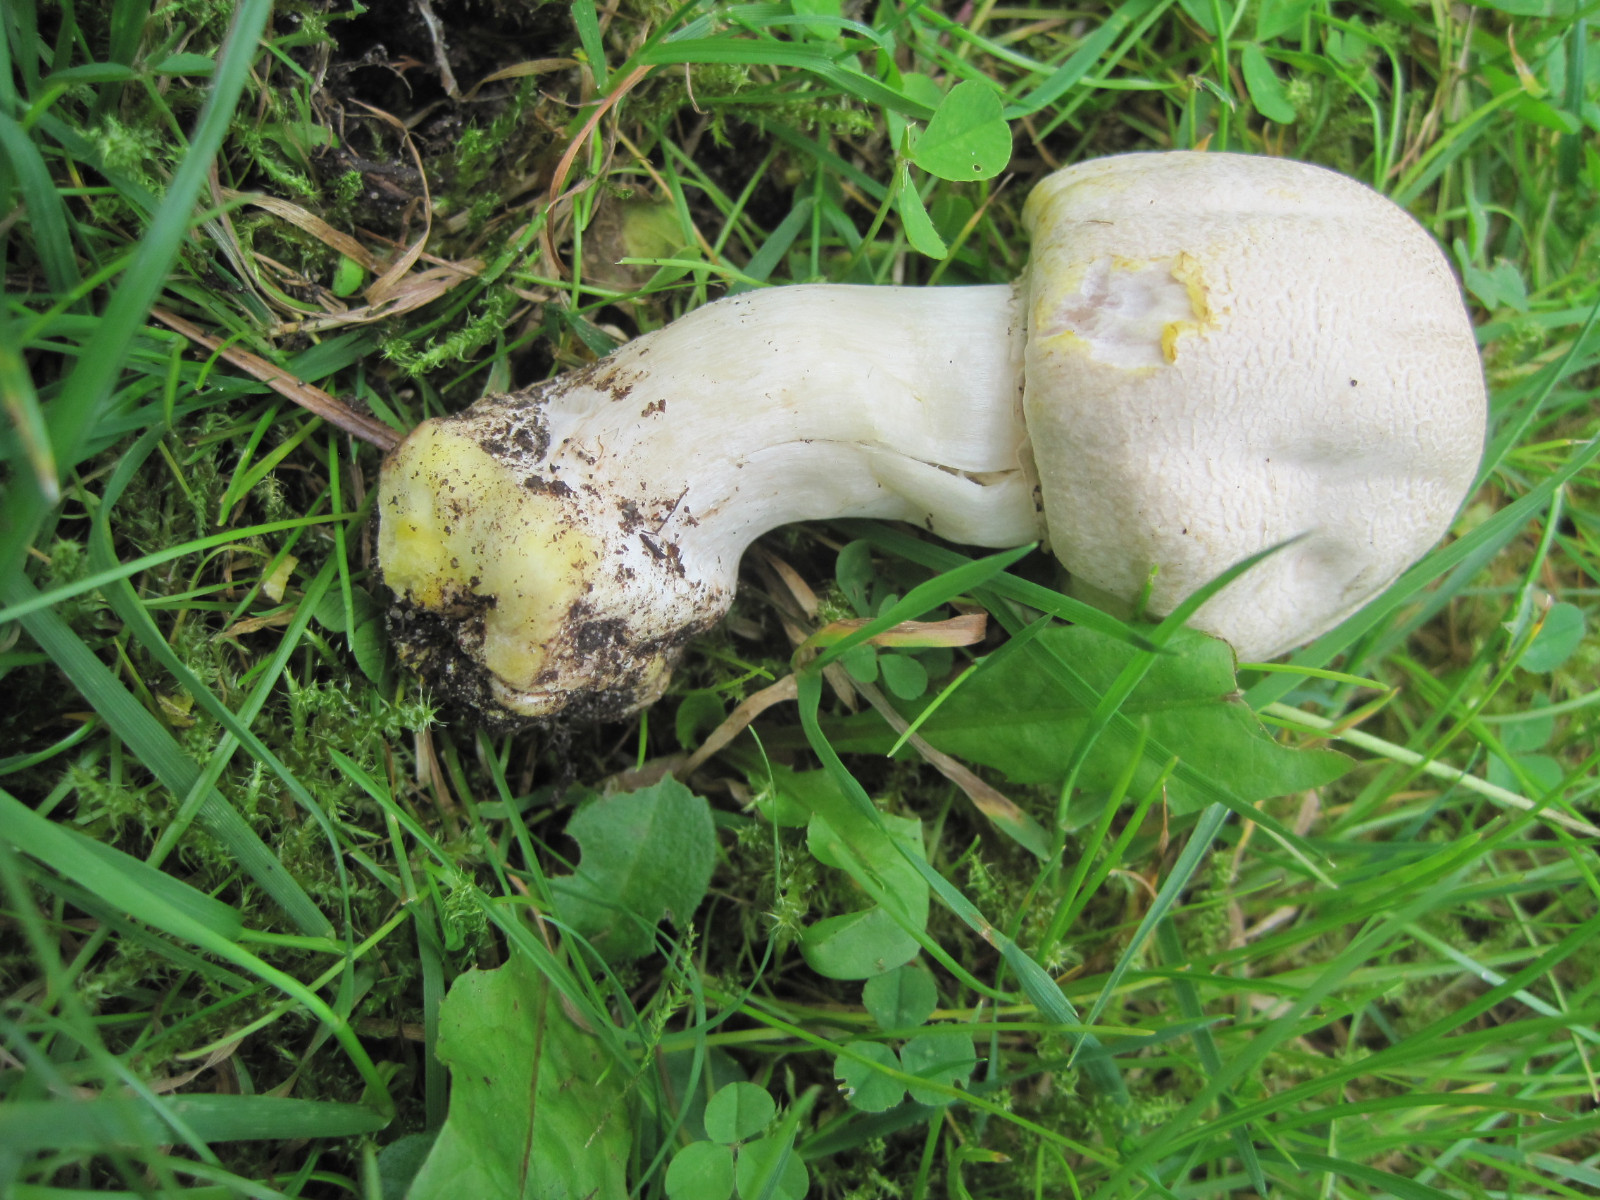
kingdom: Fungi
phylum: Basidiomycota
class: Agaricomycetes
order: Agaricales
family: Agaricaceae
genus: Agaricus
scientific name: Agaricus xanthodermus
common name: karbol-champignon
